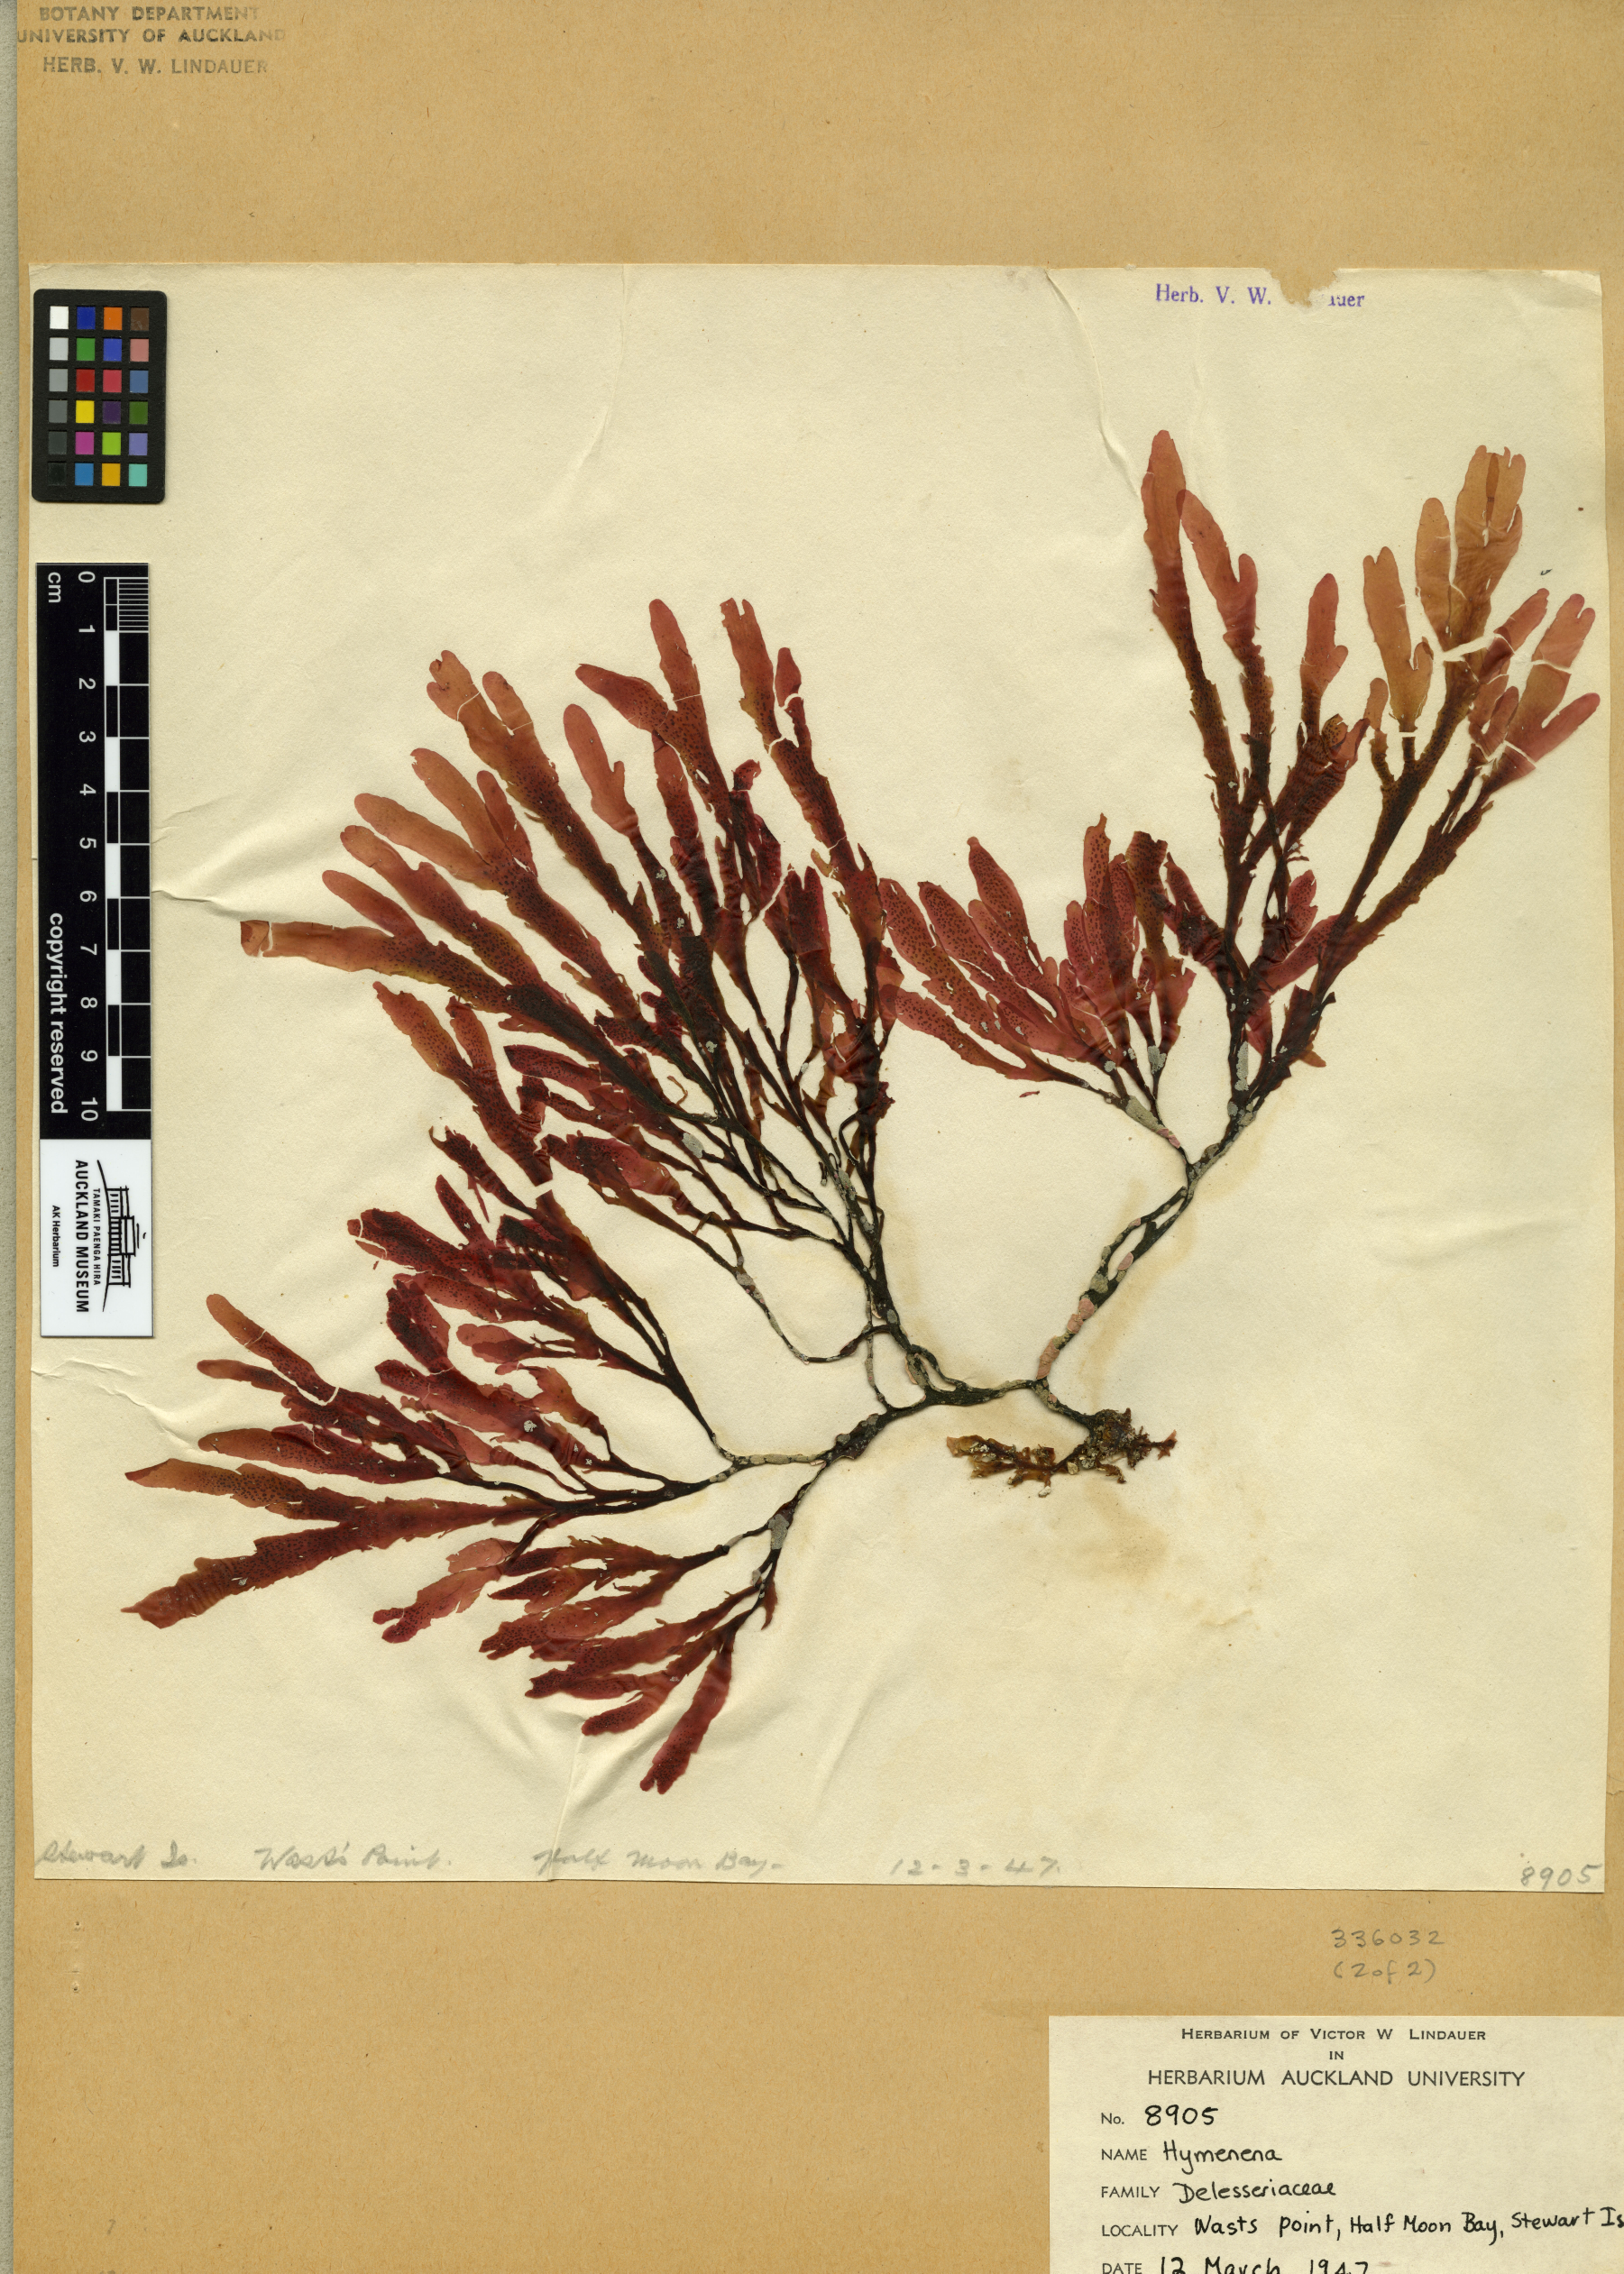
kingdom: Plantae
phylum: Rhodophyta
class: Florideophyceae
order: Ceramiales
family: Delesseriaceae
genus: Hymenena
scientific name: Hymenena
